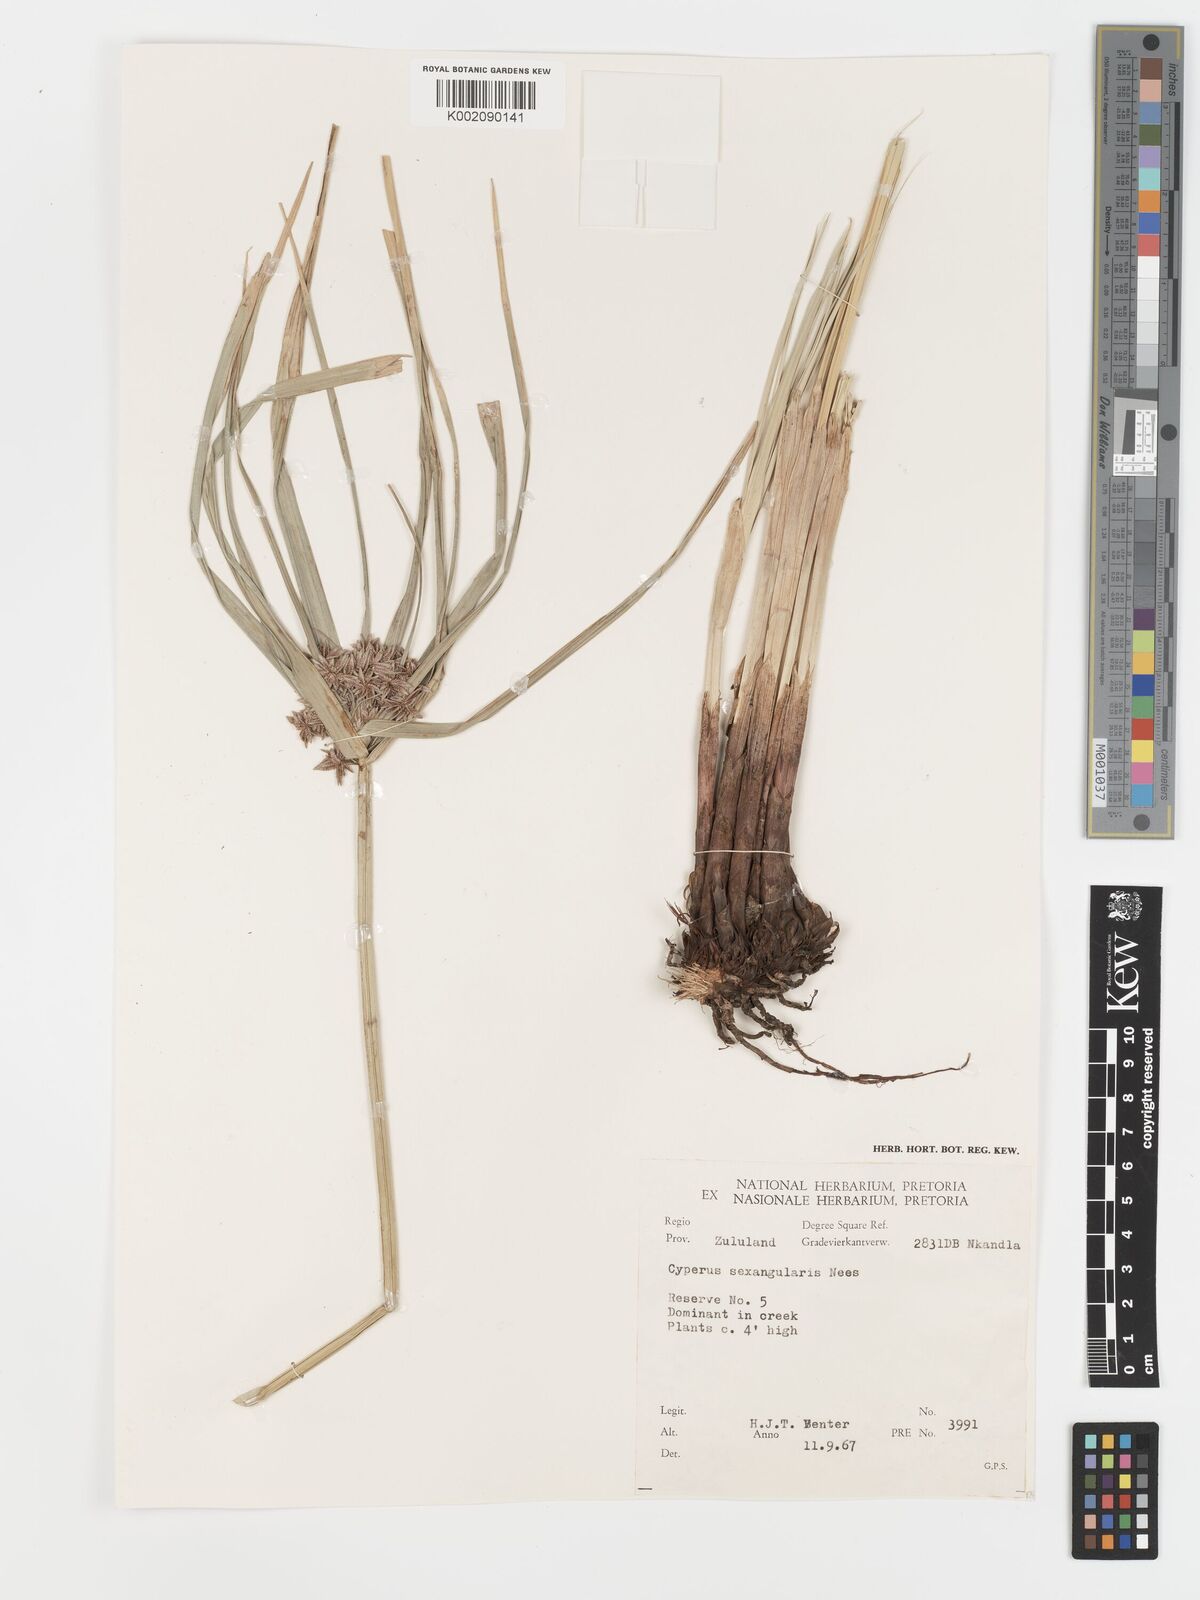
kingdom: Plantae
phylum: Tracheophyta
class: Liliopsida
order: Poales
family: Cyperaceae
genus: Cyperus
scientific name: Cyperus sexangularis
